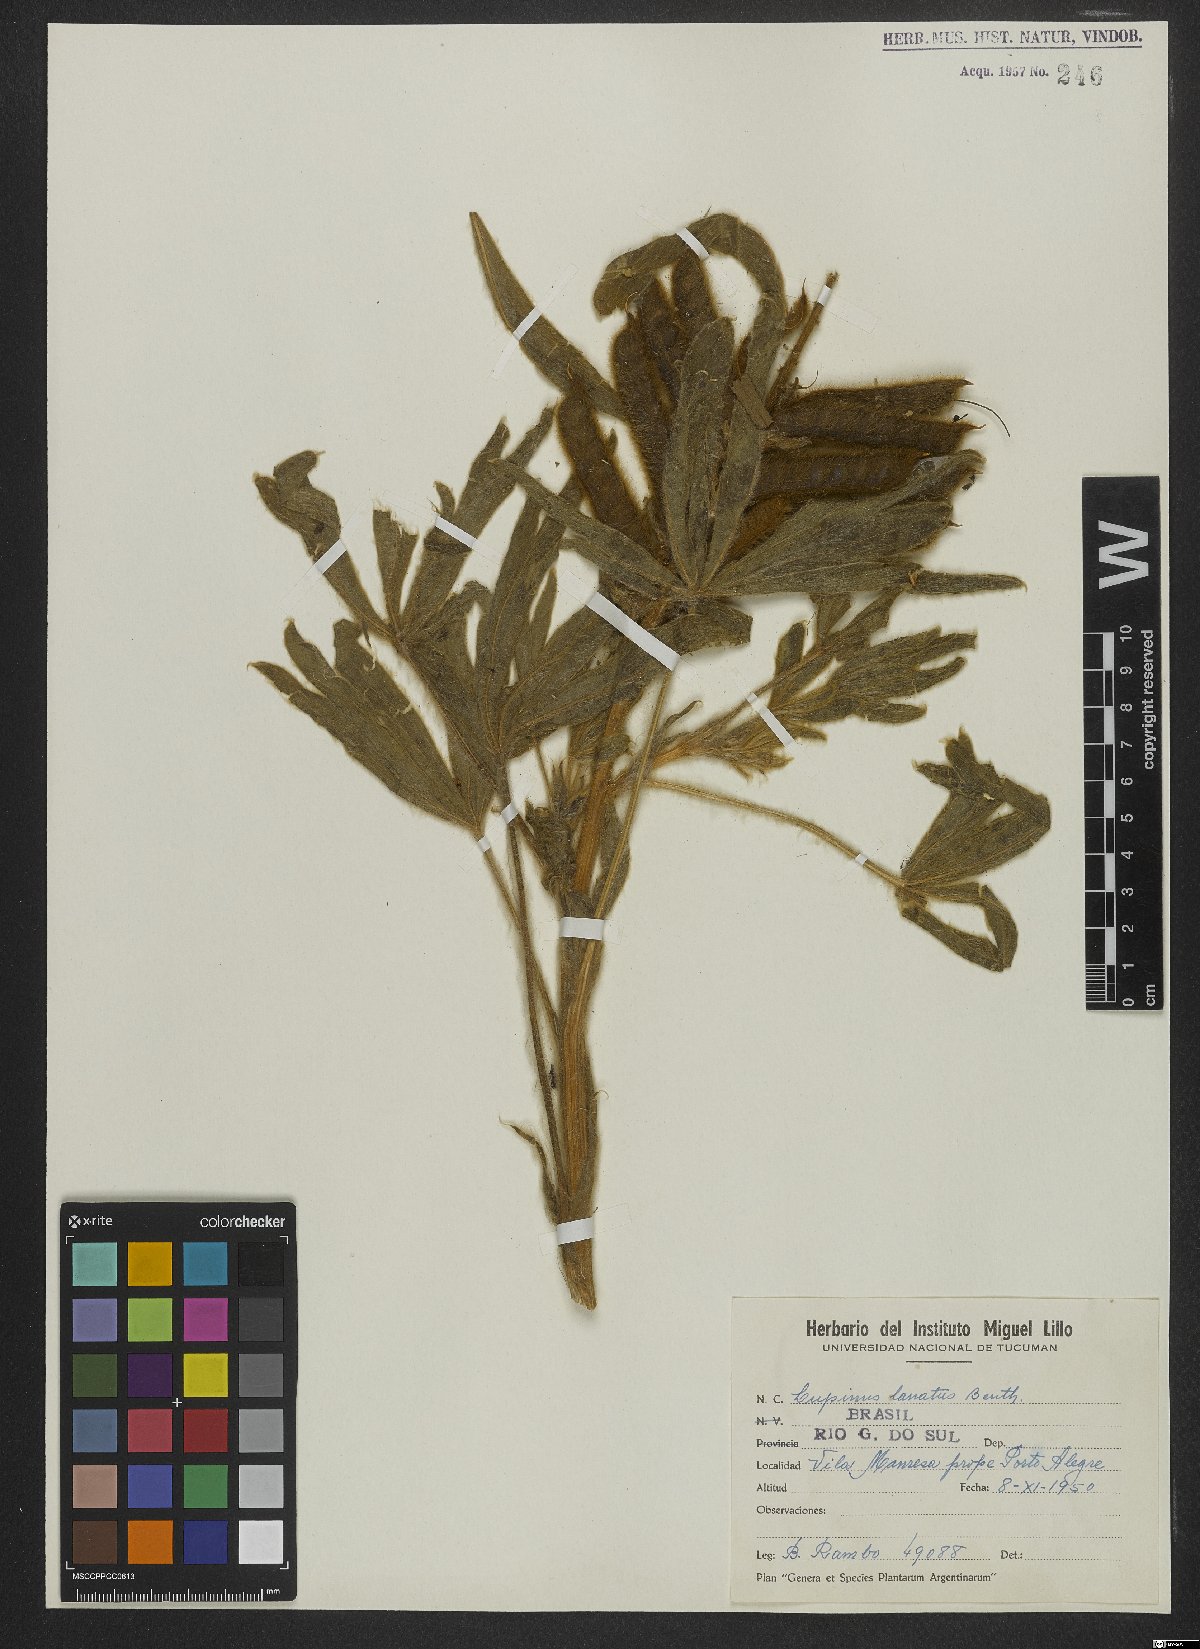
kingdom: Plantae
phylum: Tracheophyta
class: Magnoliopsida
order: Fabales
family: Fabaceae
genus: Lupinus
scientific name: Lupinus lanatus
